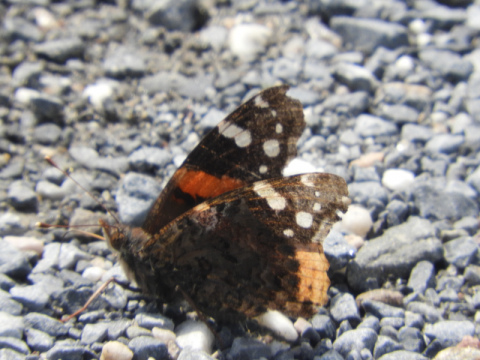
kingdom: Animalia
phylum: Arthropoda
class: Insecta
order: Lepidoptera
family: Nymphalidae
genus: Vanessa
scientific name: Vanessa atalanta
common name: Red Admiral
